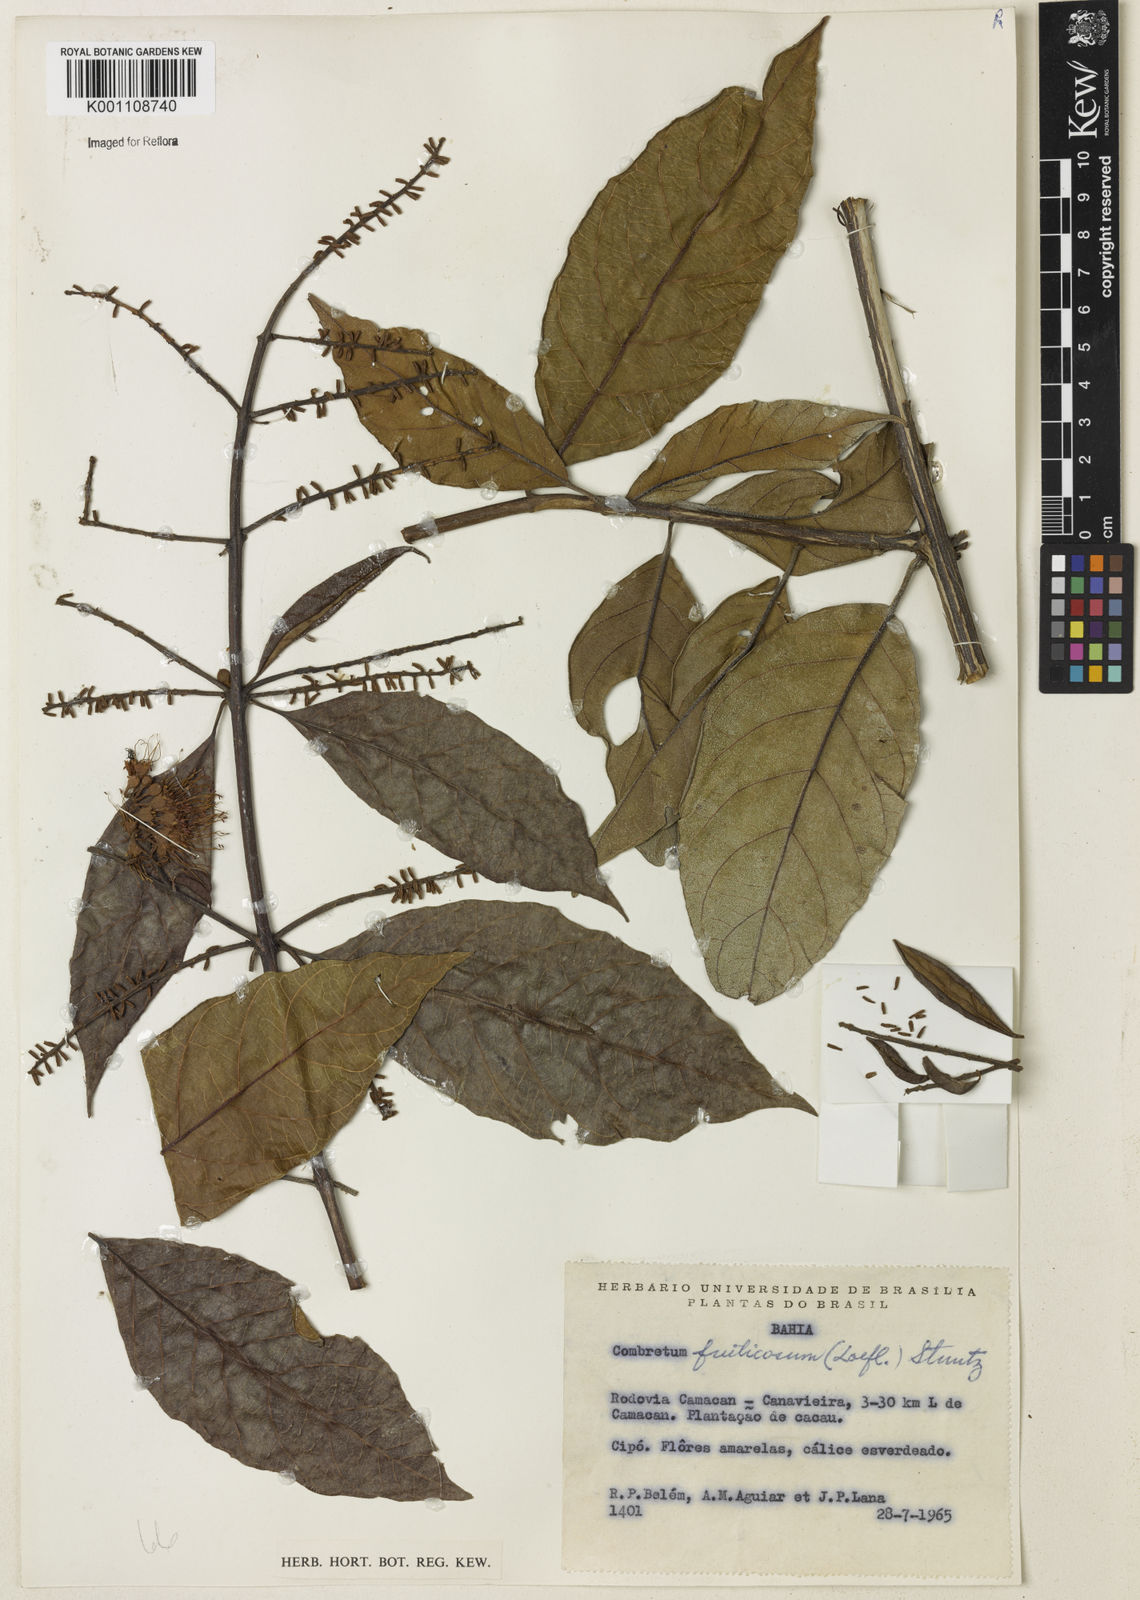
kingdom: Plantae
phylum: Tracheophyta
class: Magnoliopsida
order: Myrtales
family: Combretaceae
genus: Combretum
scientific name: Combretum fruticosum
